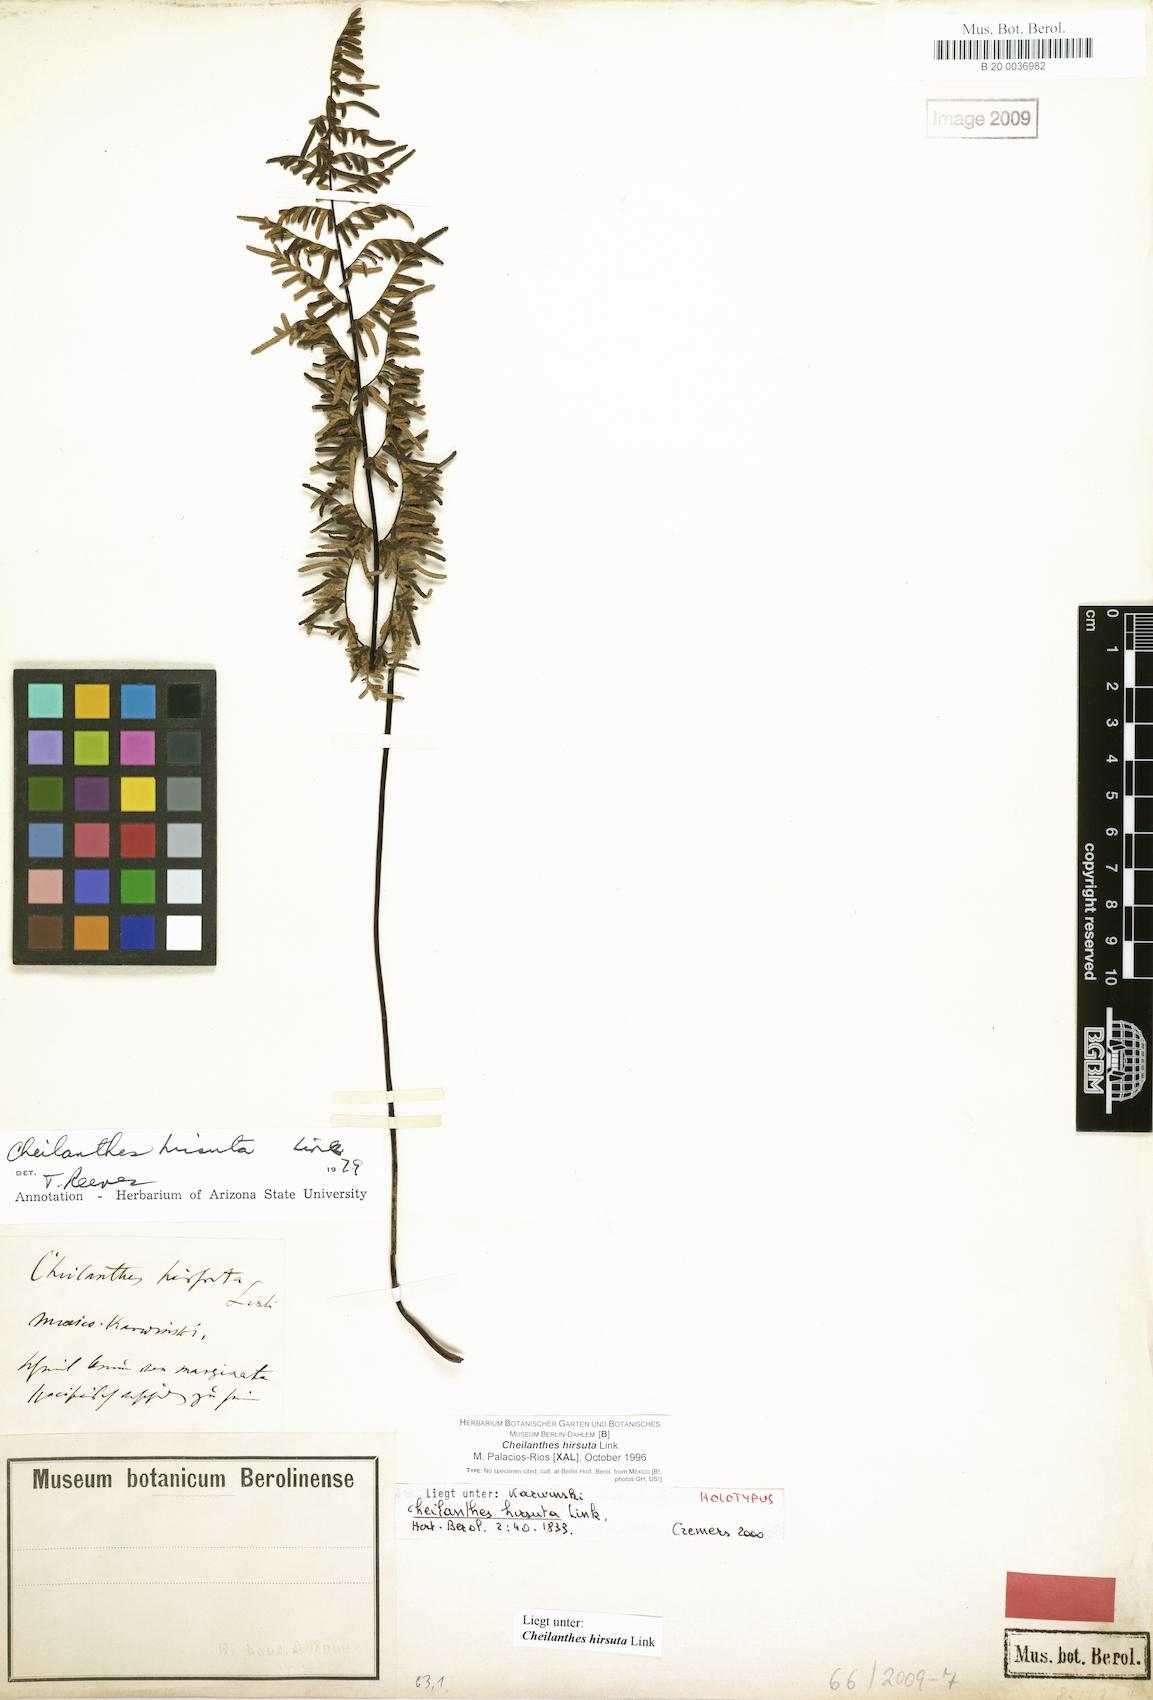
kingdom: Plantae
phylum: Tracheophyta
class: Polypodiopsida
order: Polypodiales
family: Pteridaceae
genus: Gaga
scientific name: Gaga hirsuta
